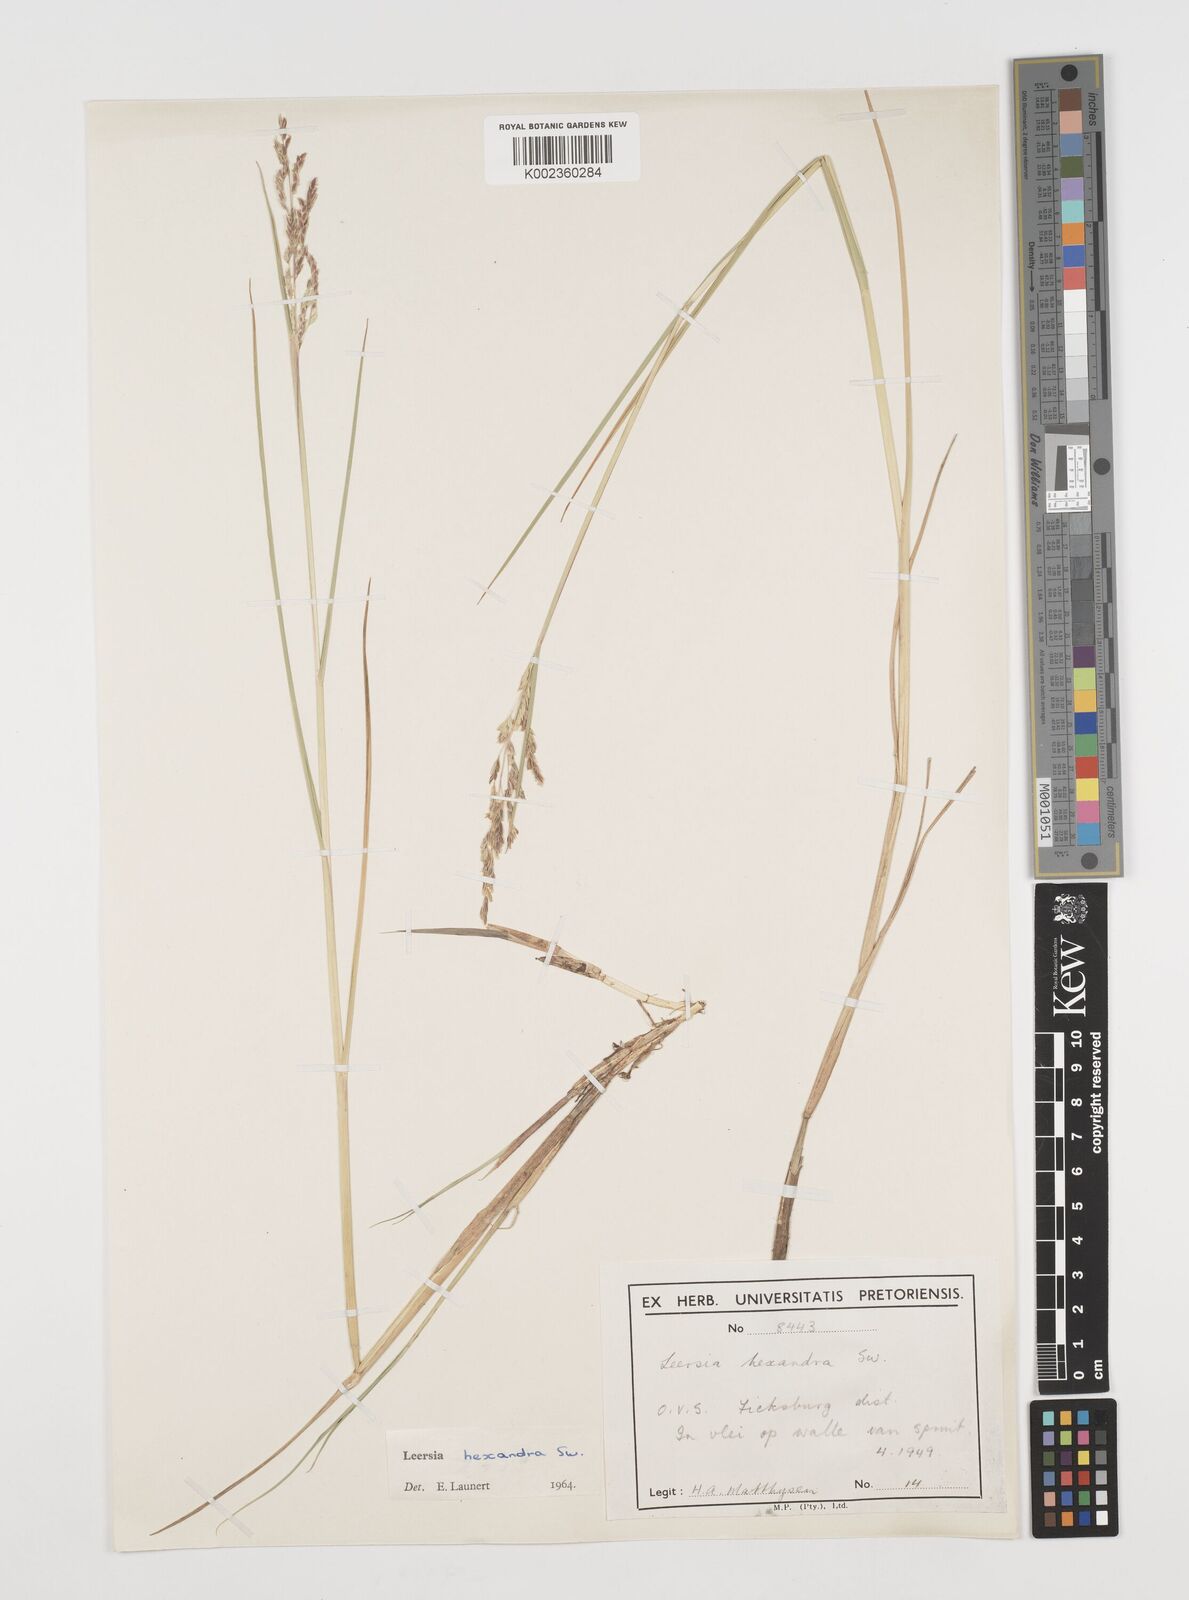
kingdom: Plantae
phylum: Tracheophyta
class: Liliopsida
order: Poales
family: Poaceae
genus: Leersia
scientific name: Leersia hexandra
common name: Southern cut grass
